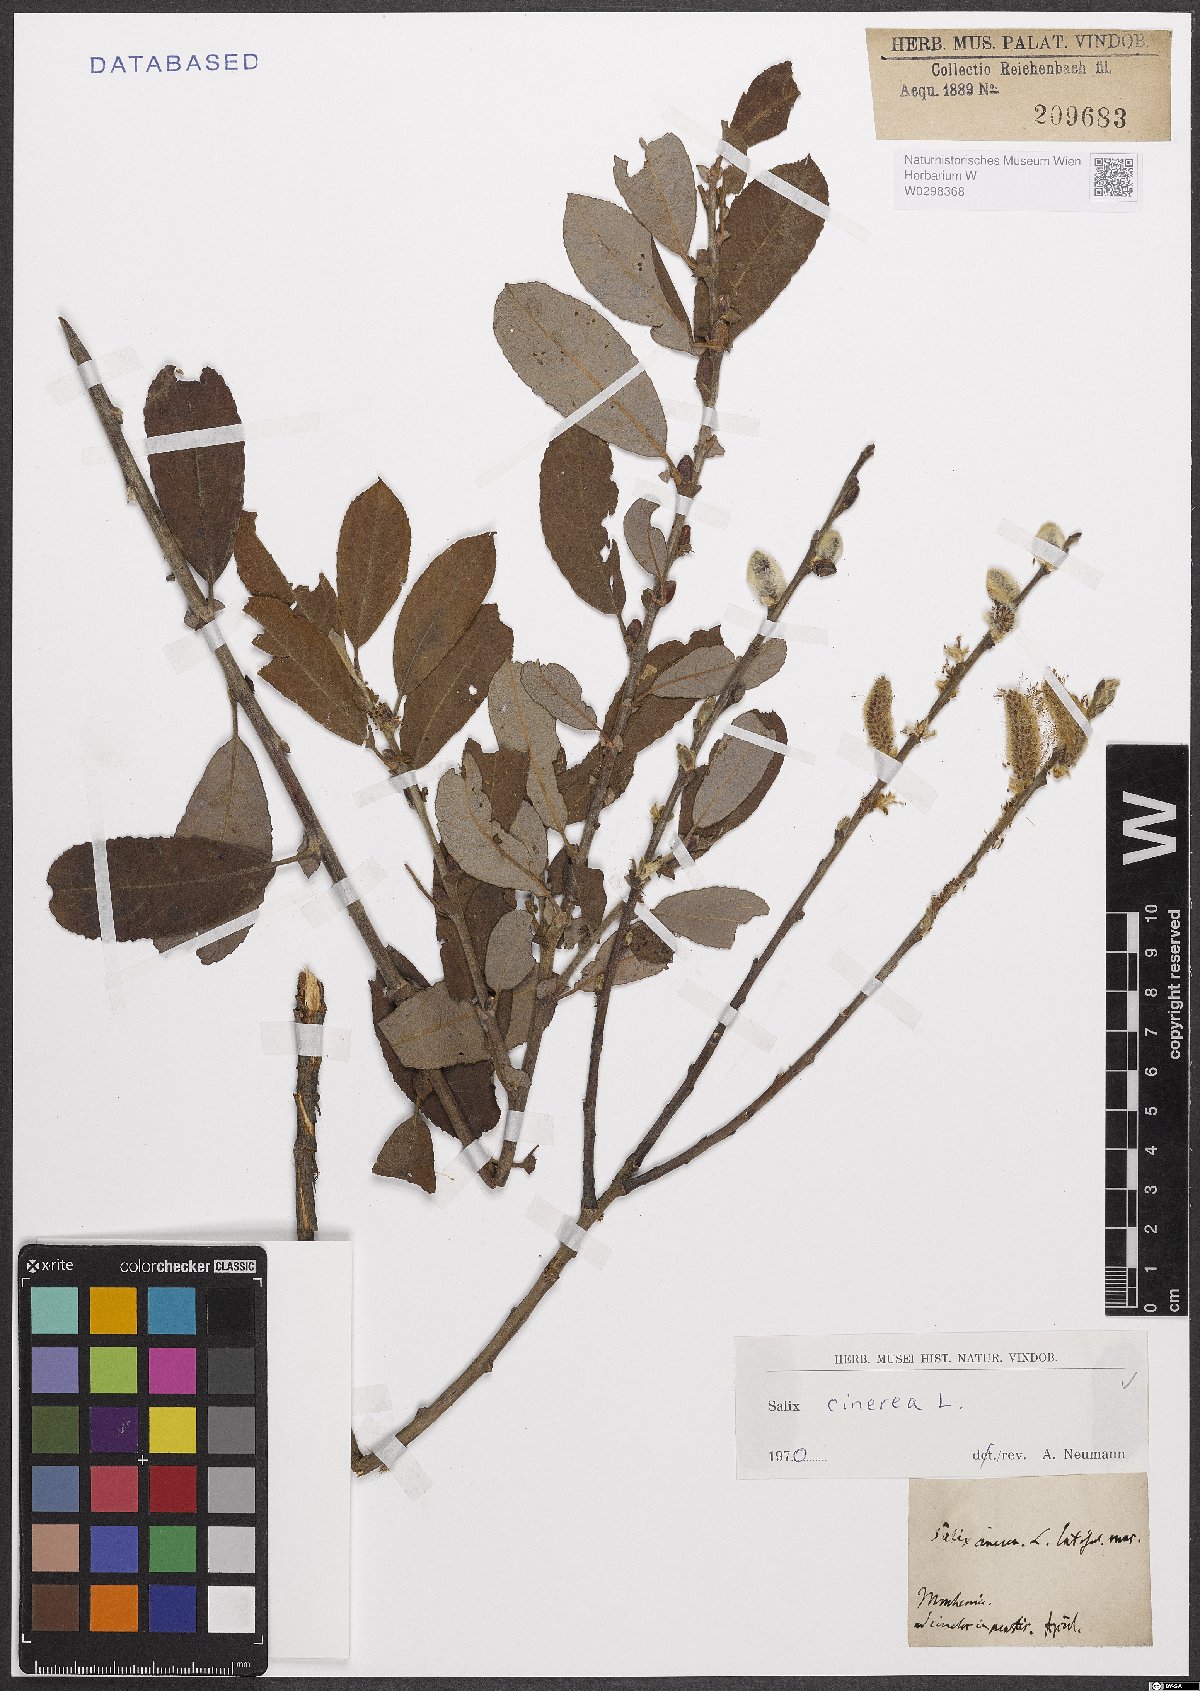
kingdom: Plantae
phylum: Tracheophyta
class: Magnoliopsida
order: Malpighiales
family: Salicaceae
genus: Salix
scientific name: Salix cinerea
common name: Common sallow
